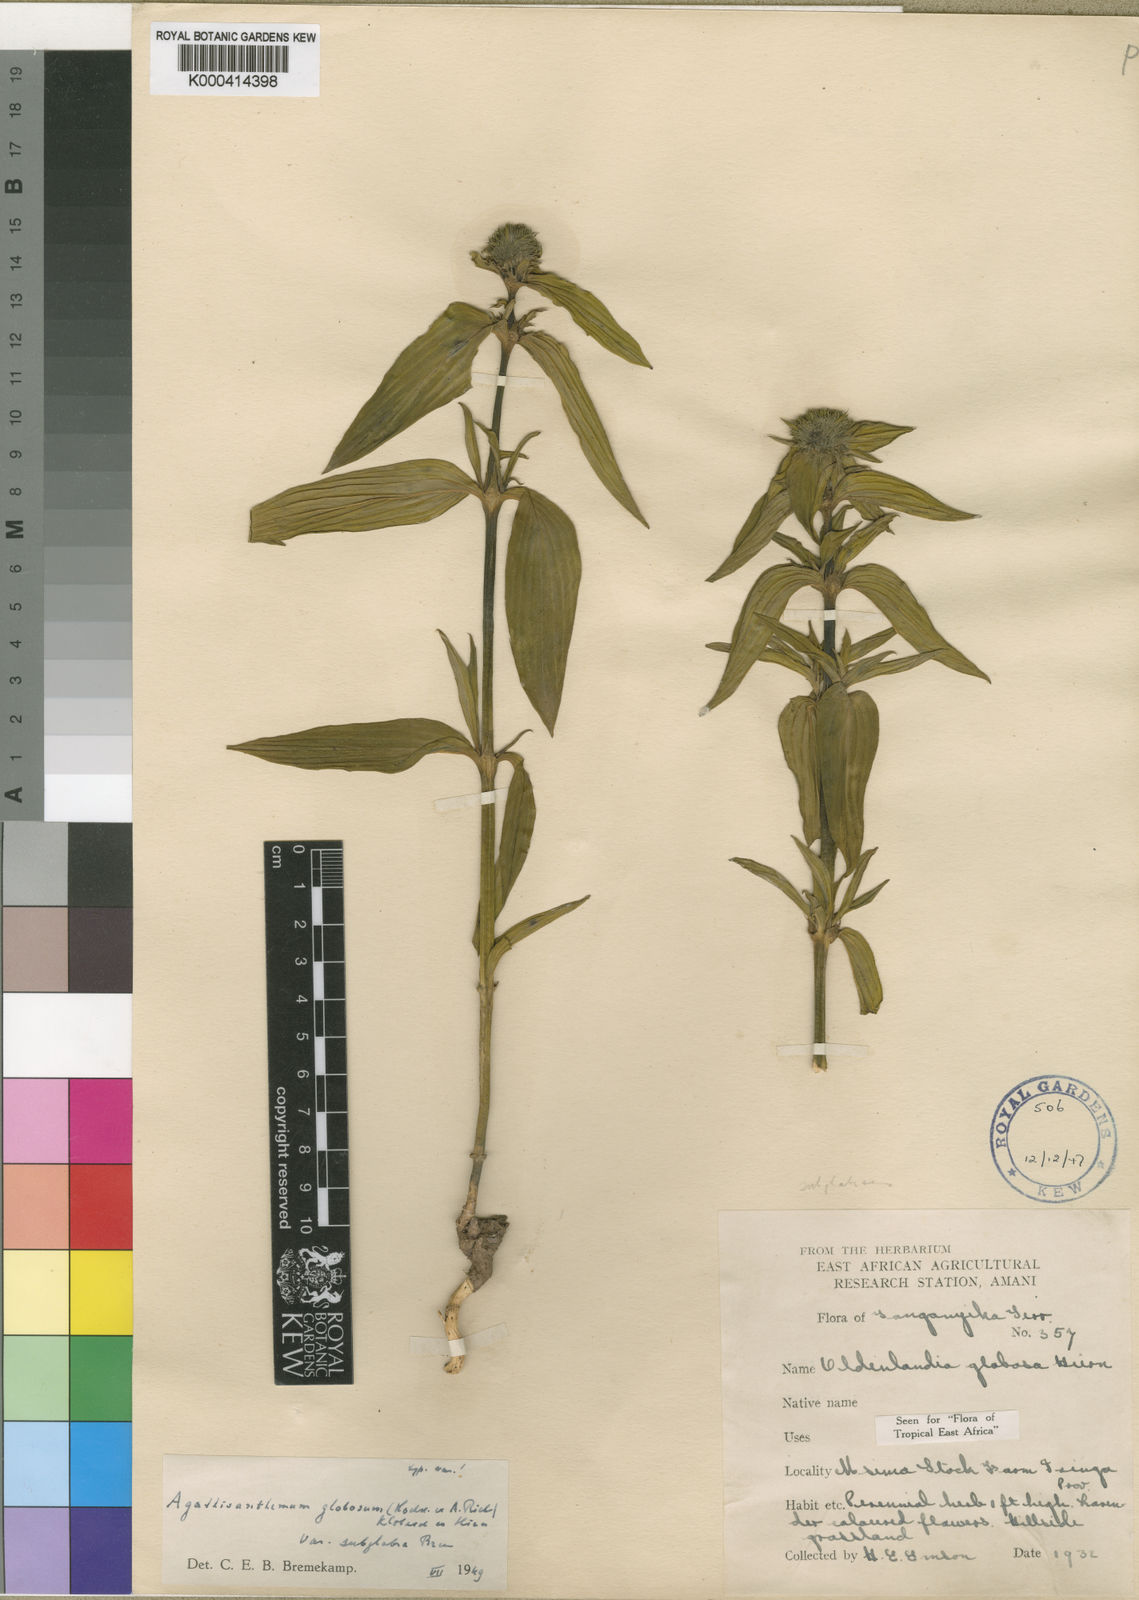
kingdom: Plantae
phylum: Tracheophyta
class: Magnoliopsida
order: Gentianales
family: Rubiaceae
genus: Agathisanthemum
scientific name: Agathisanthemum globosum
